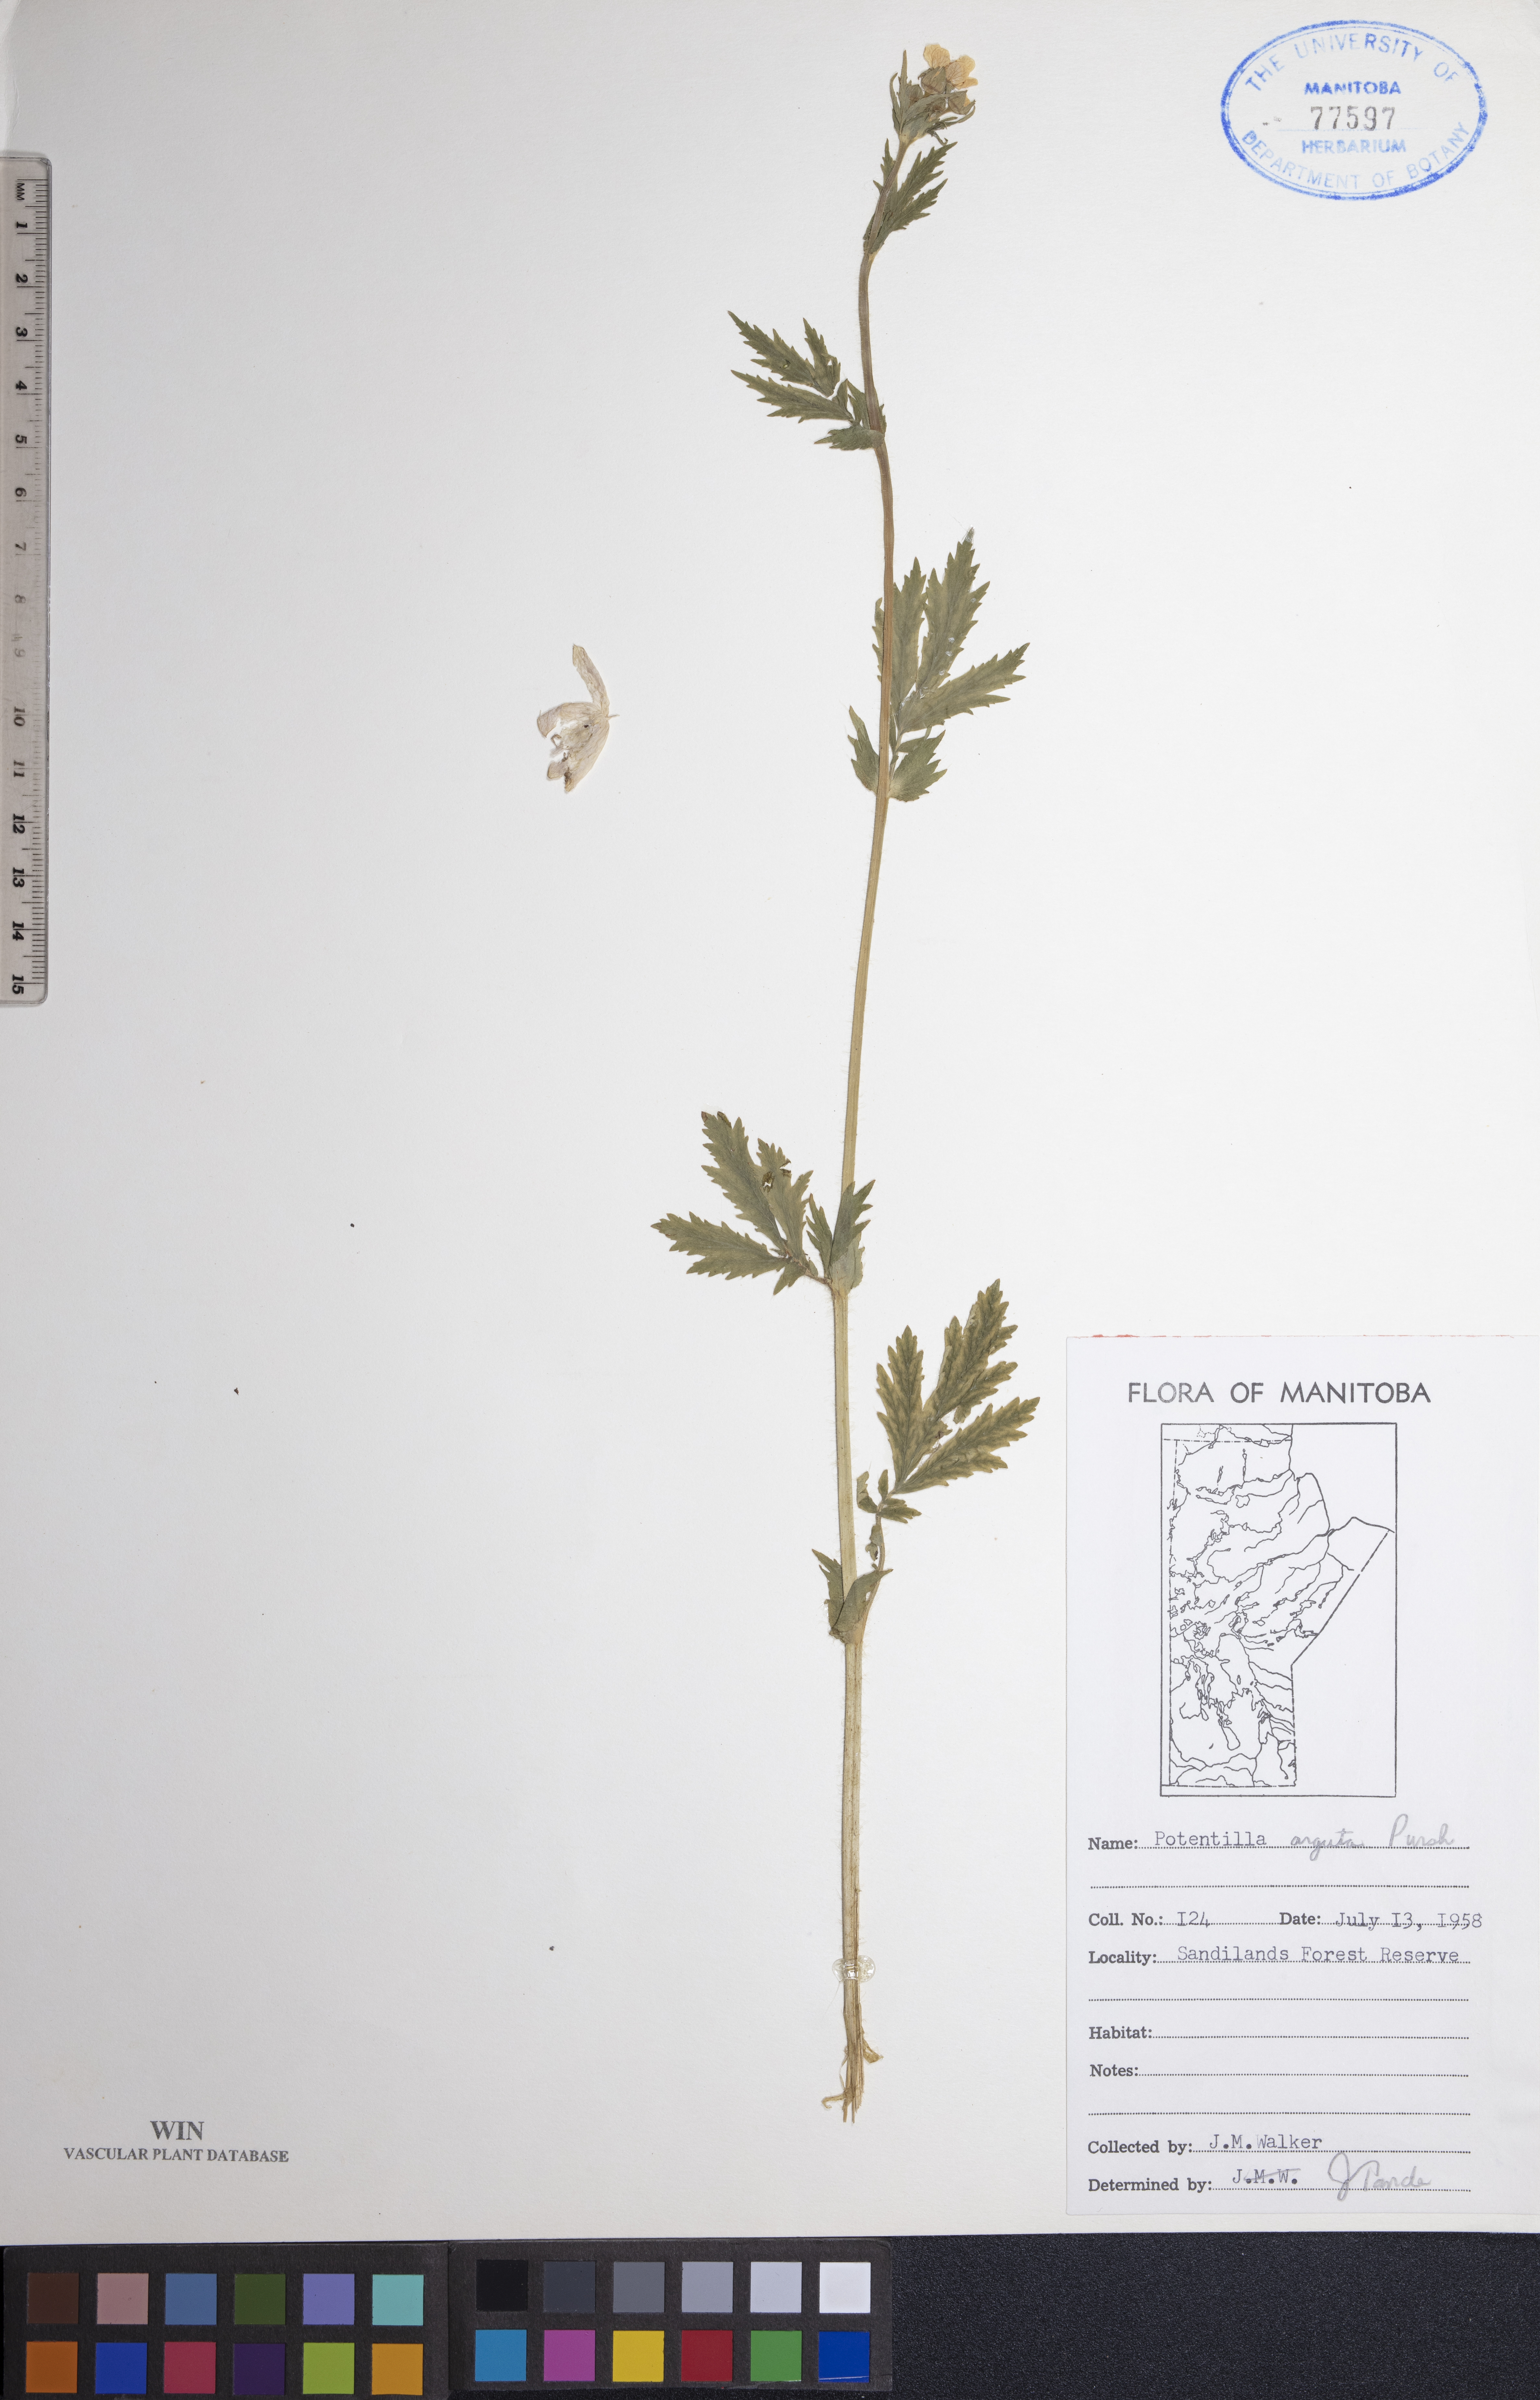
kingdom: Plantae
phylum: Tracheophyta
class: Magnoliopsida
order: Rosales
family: Rosaceae
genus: Drymocallis
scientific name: Drymocallis arguta
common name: Tall cinquefoil
